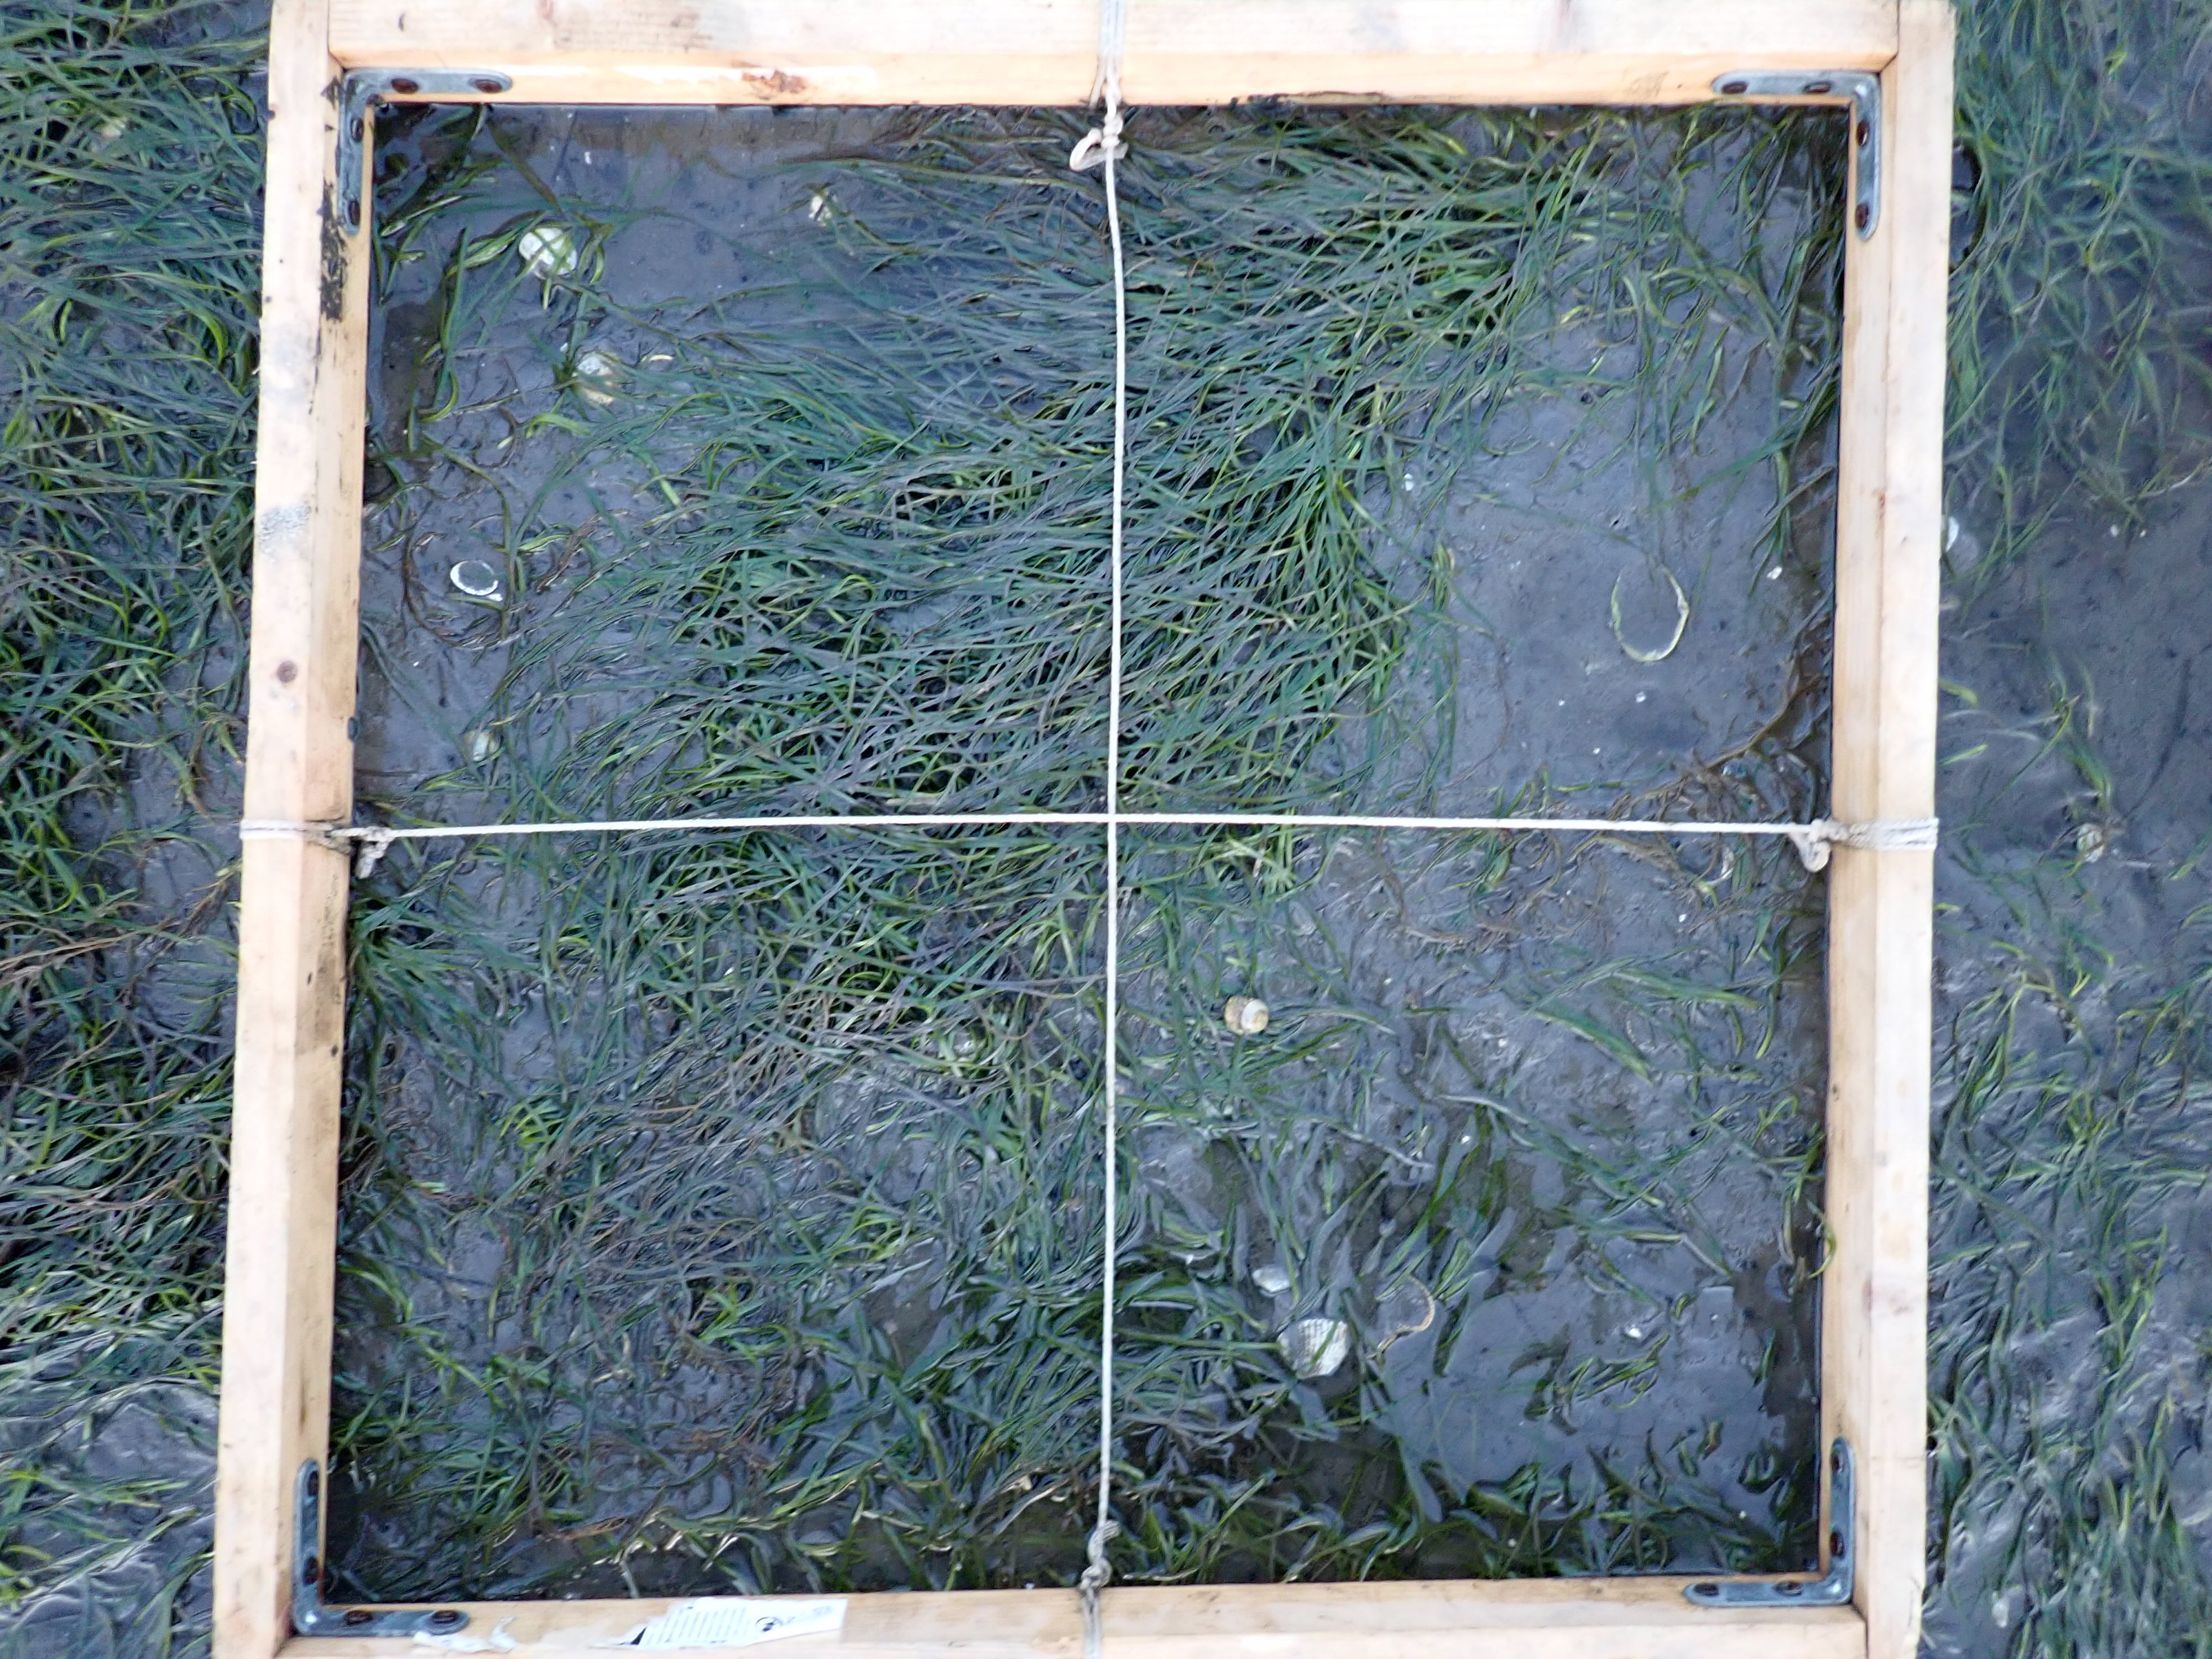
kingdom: Plantae
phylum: Rhodophyta
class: Florideophyceae
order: Gracilariales
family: Gracilariaceae
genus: Gracilaria
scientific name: Gracilaria vermiculophylla
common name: Algae
